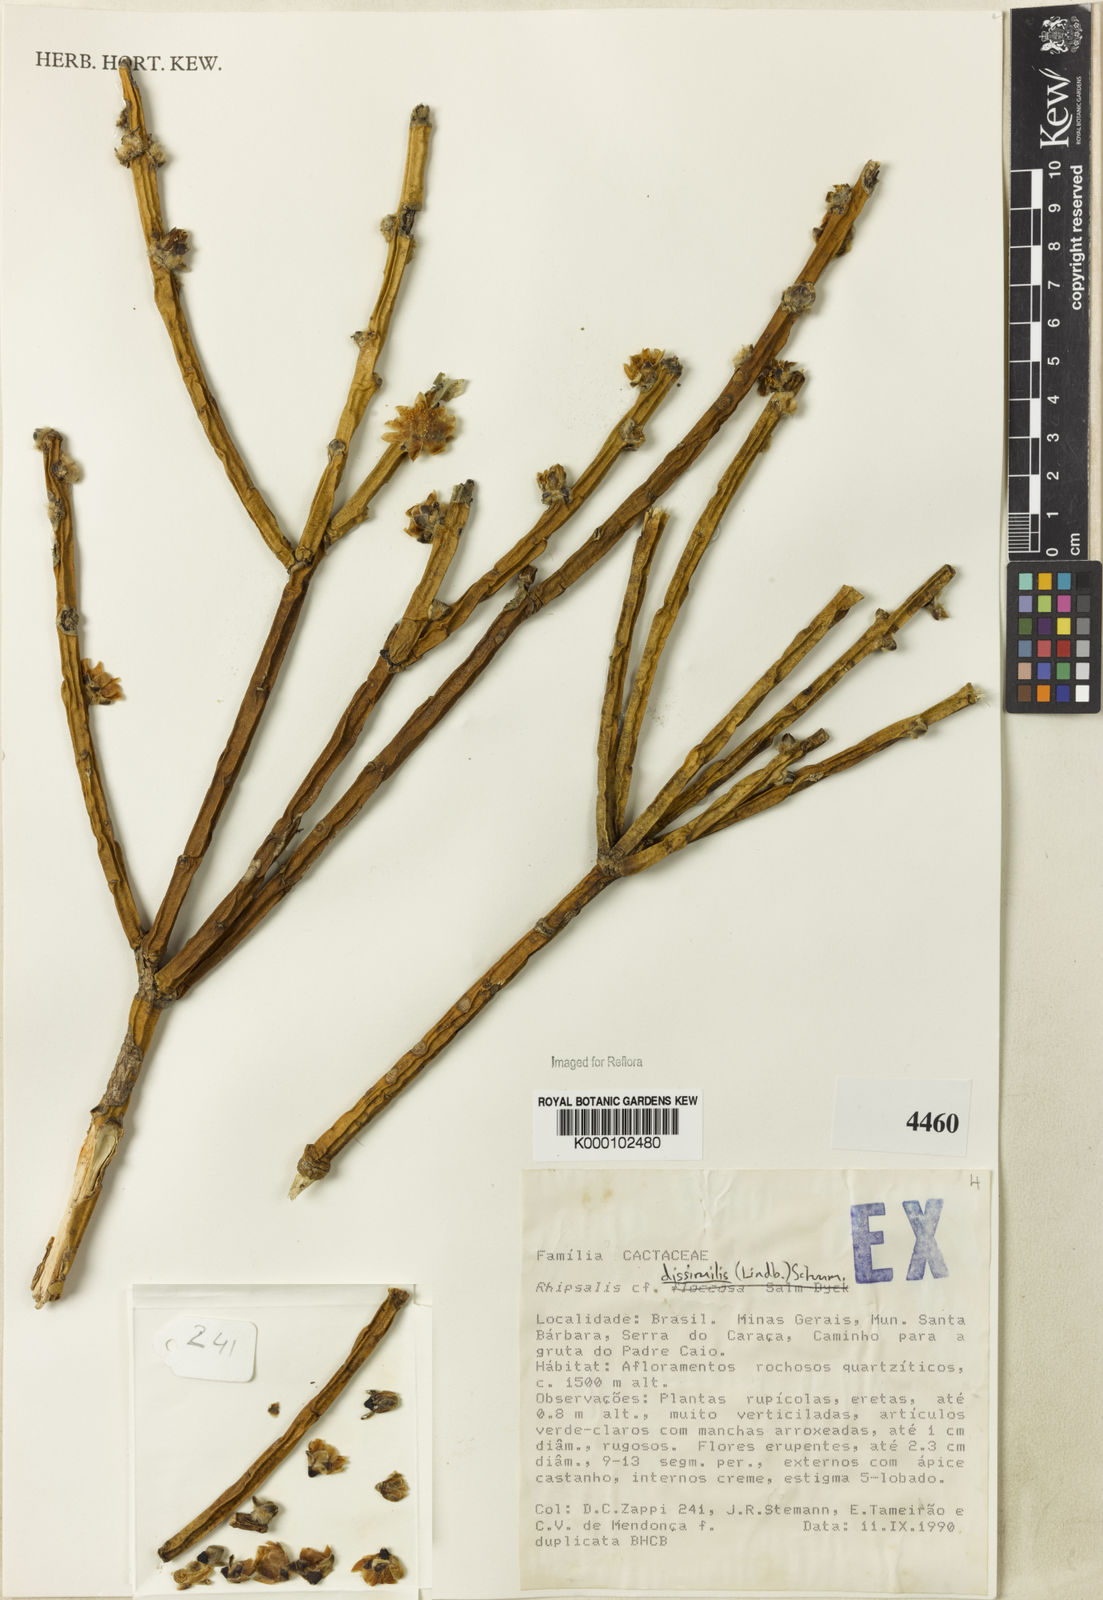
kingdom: Plantae
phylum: Tracheophyta
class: Magnoliopsida
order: Caryophyllales
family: Cactaceae
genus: Rhipsalis
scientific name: Rhipsalis dissimilis
